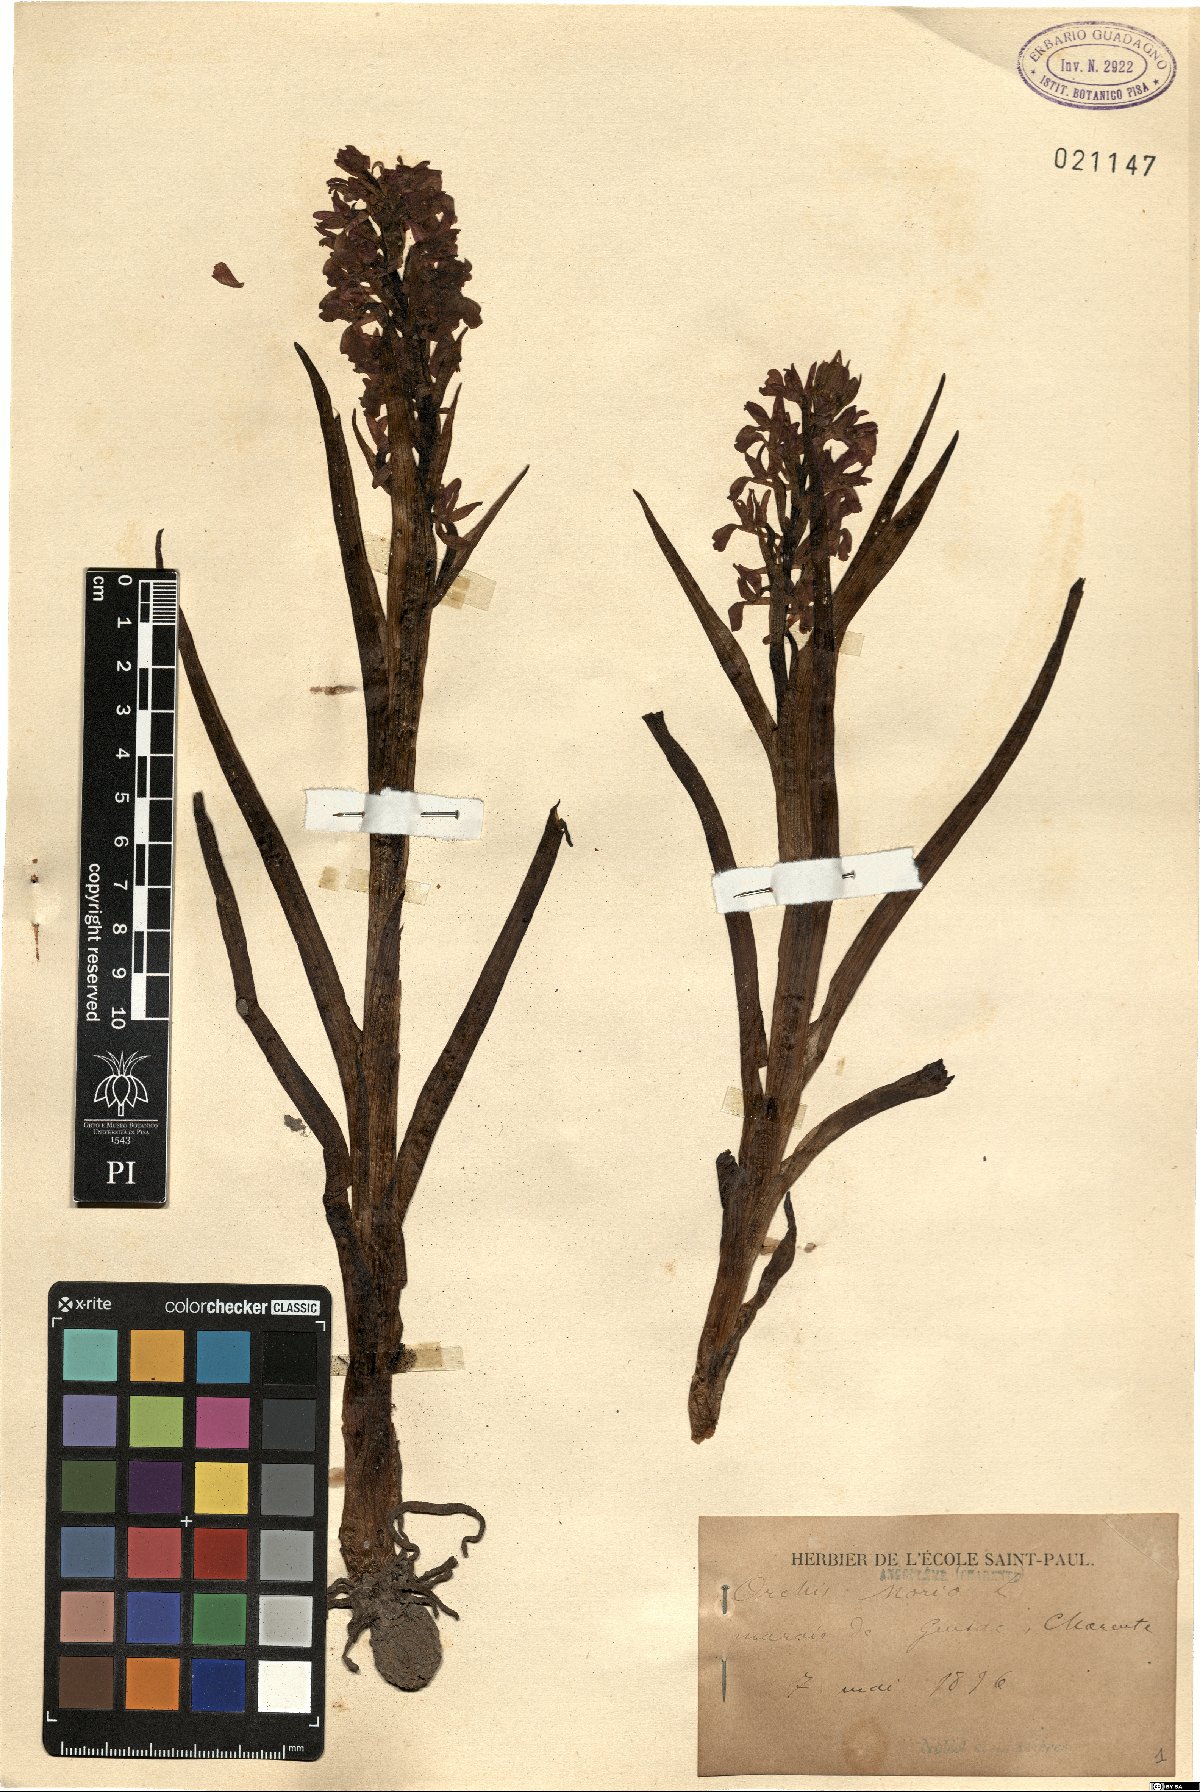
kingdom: Plantae
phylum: Tracheophyta
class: Liliopsida
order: Asparagales
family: Orchidaceae
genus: Anacamptis
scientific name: Anacamptis morio
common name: Green-winged orchid
